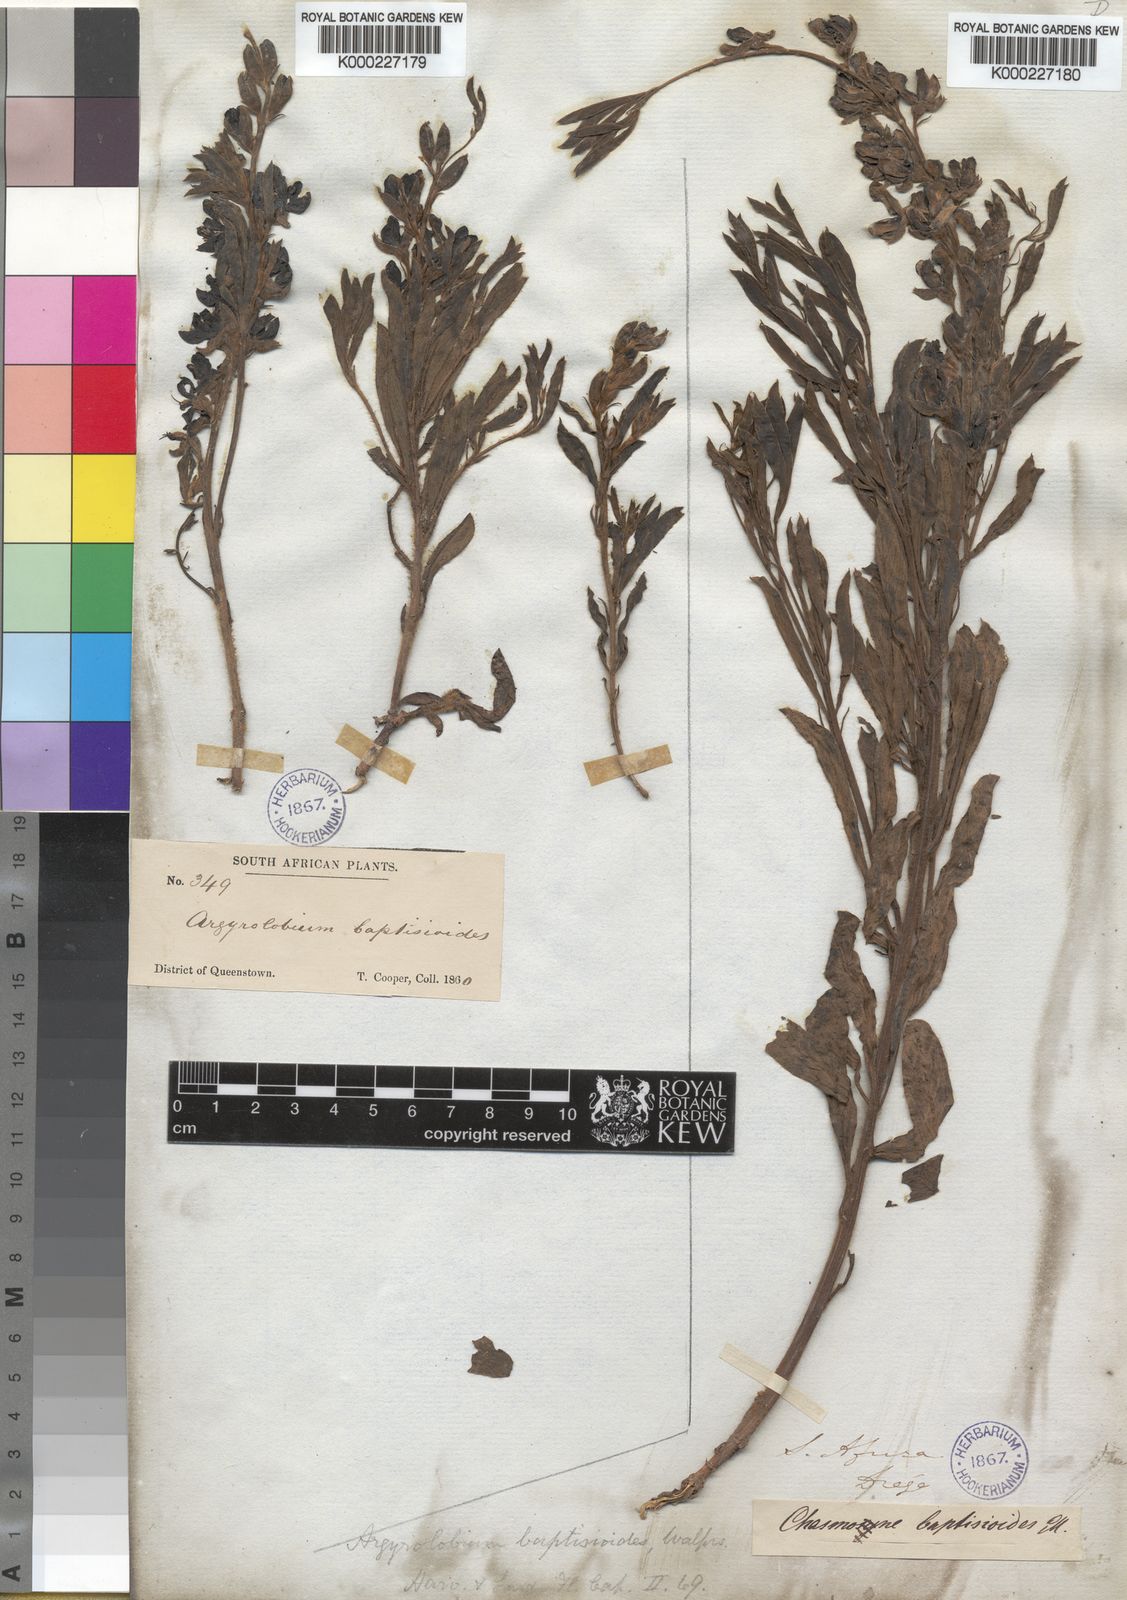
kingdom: Plantae
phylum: Tracheophyta
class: Magnoliopsida
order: Fabales
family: Fabaceae
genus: Argyrolobium
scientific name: Argyrolobium baptisioides
